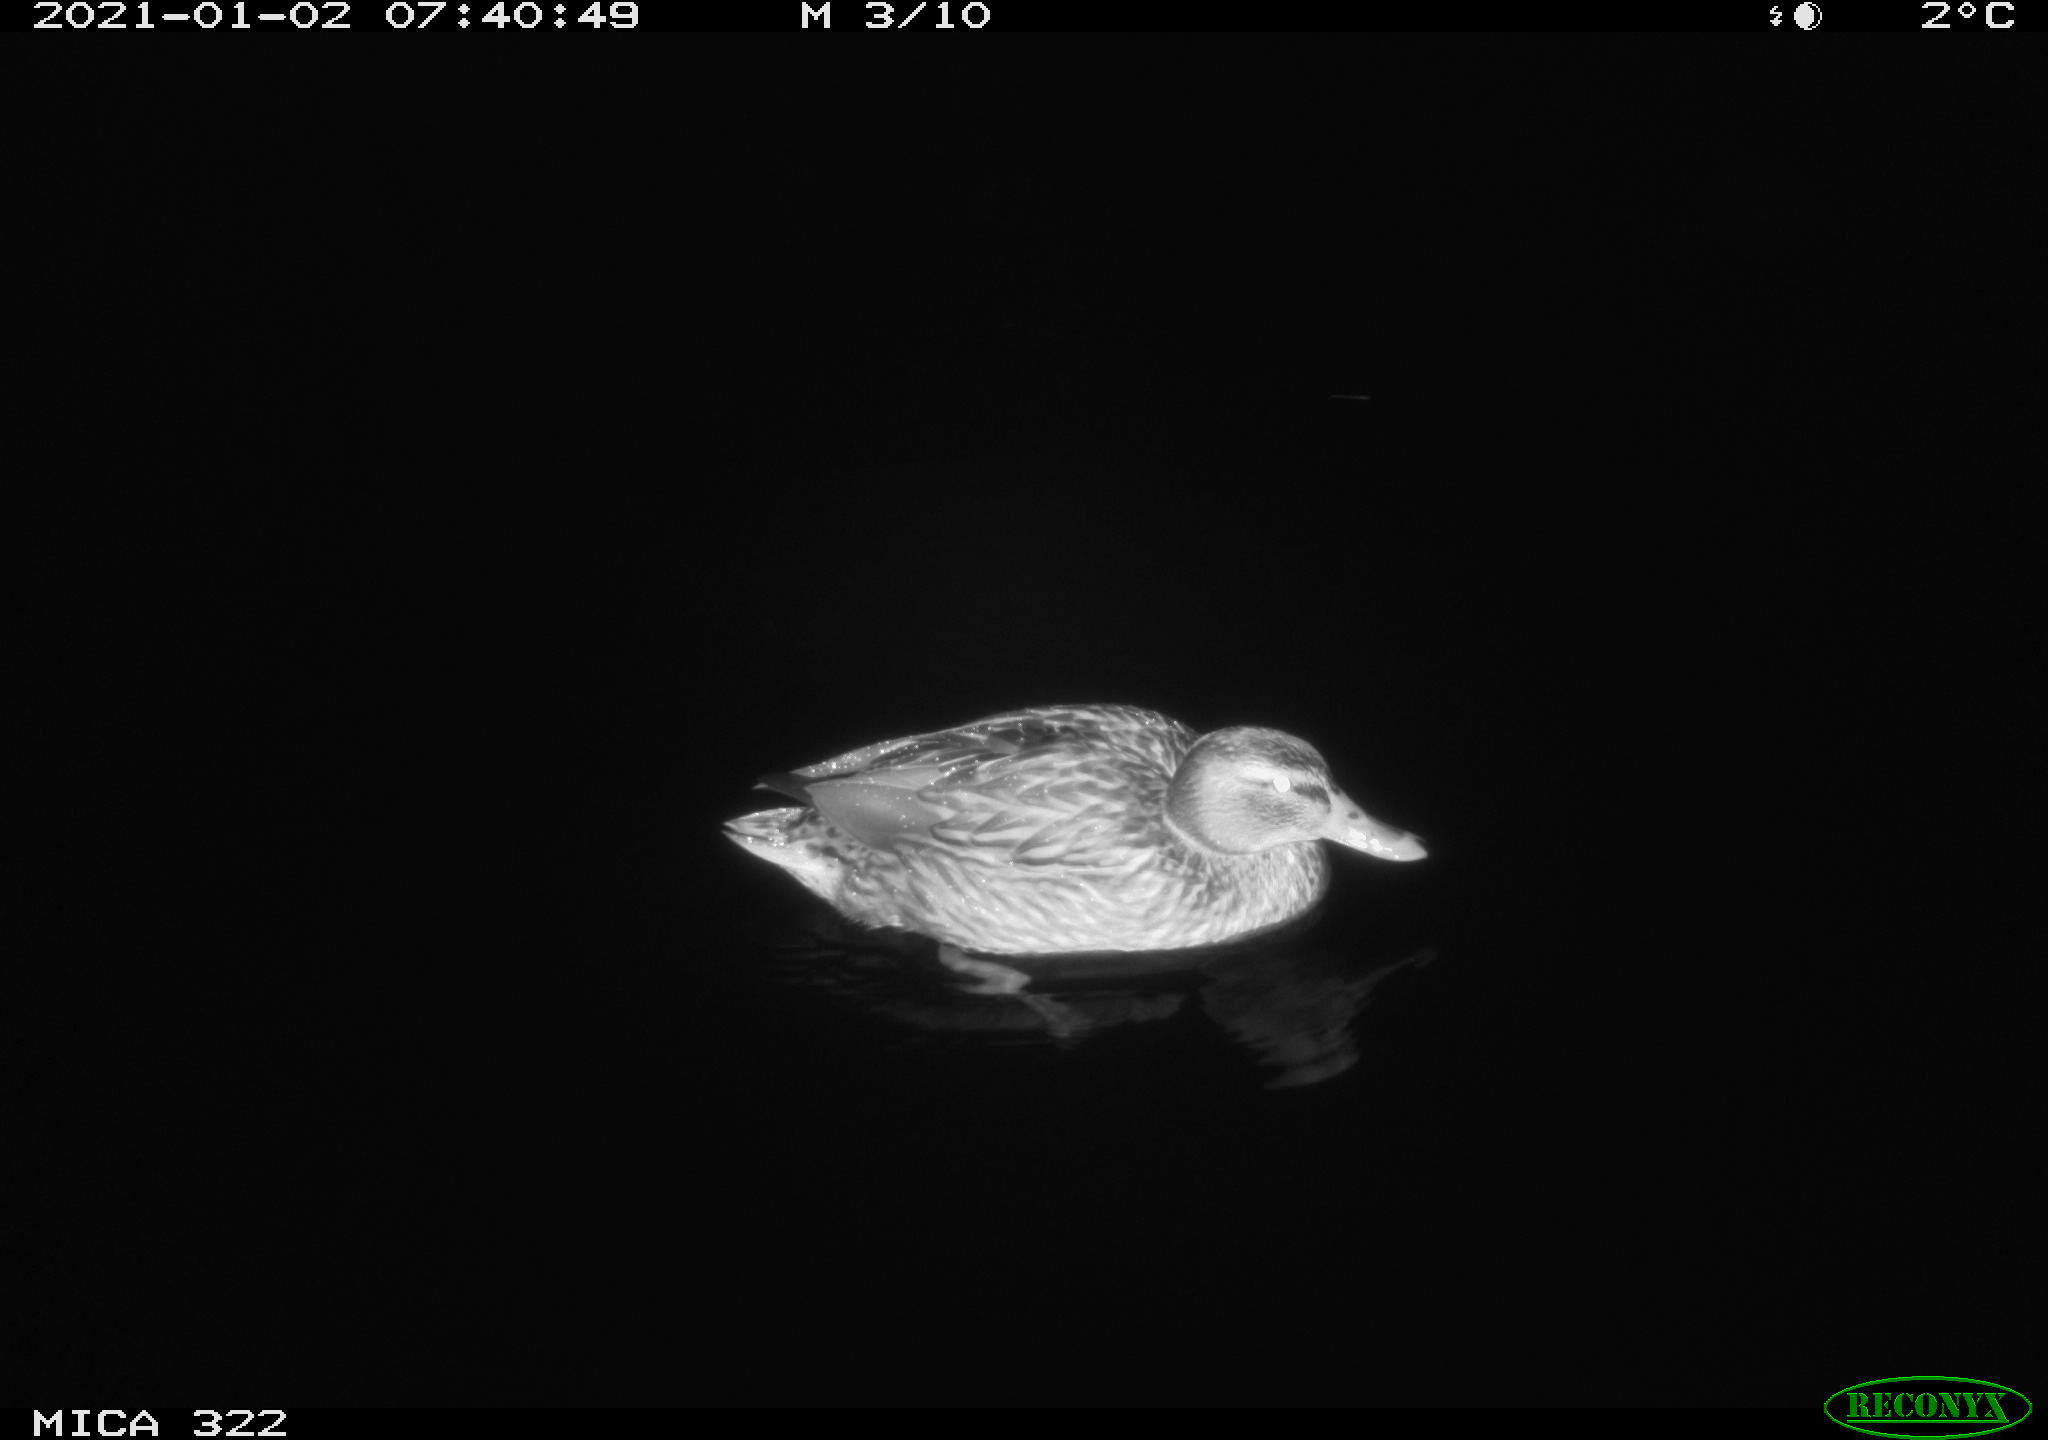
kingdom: Animalia
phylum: Chordata
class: Aves
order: Anseriformes
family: Anatidae
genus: Anas
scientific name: Anas platyrhynchos
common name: Mallard
